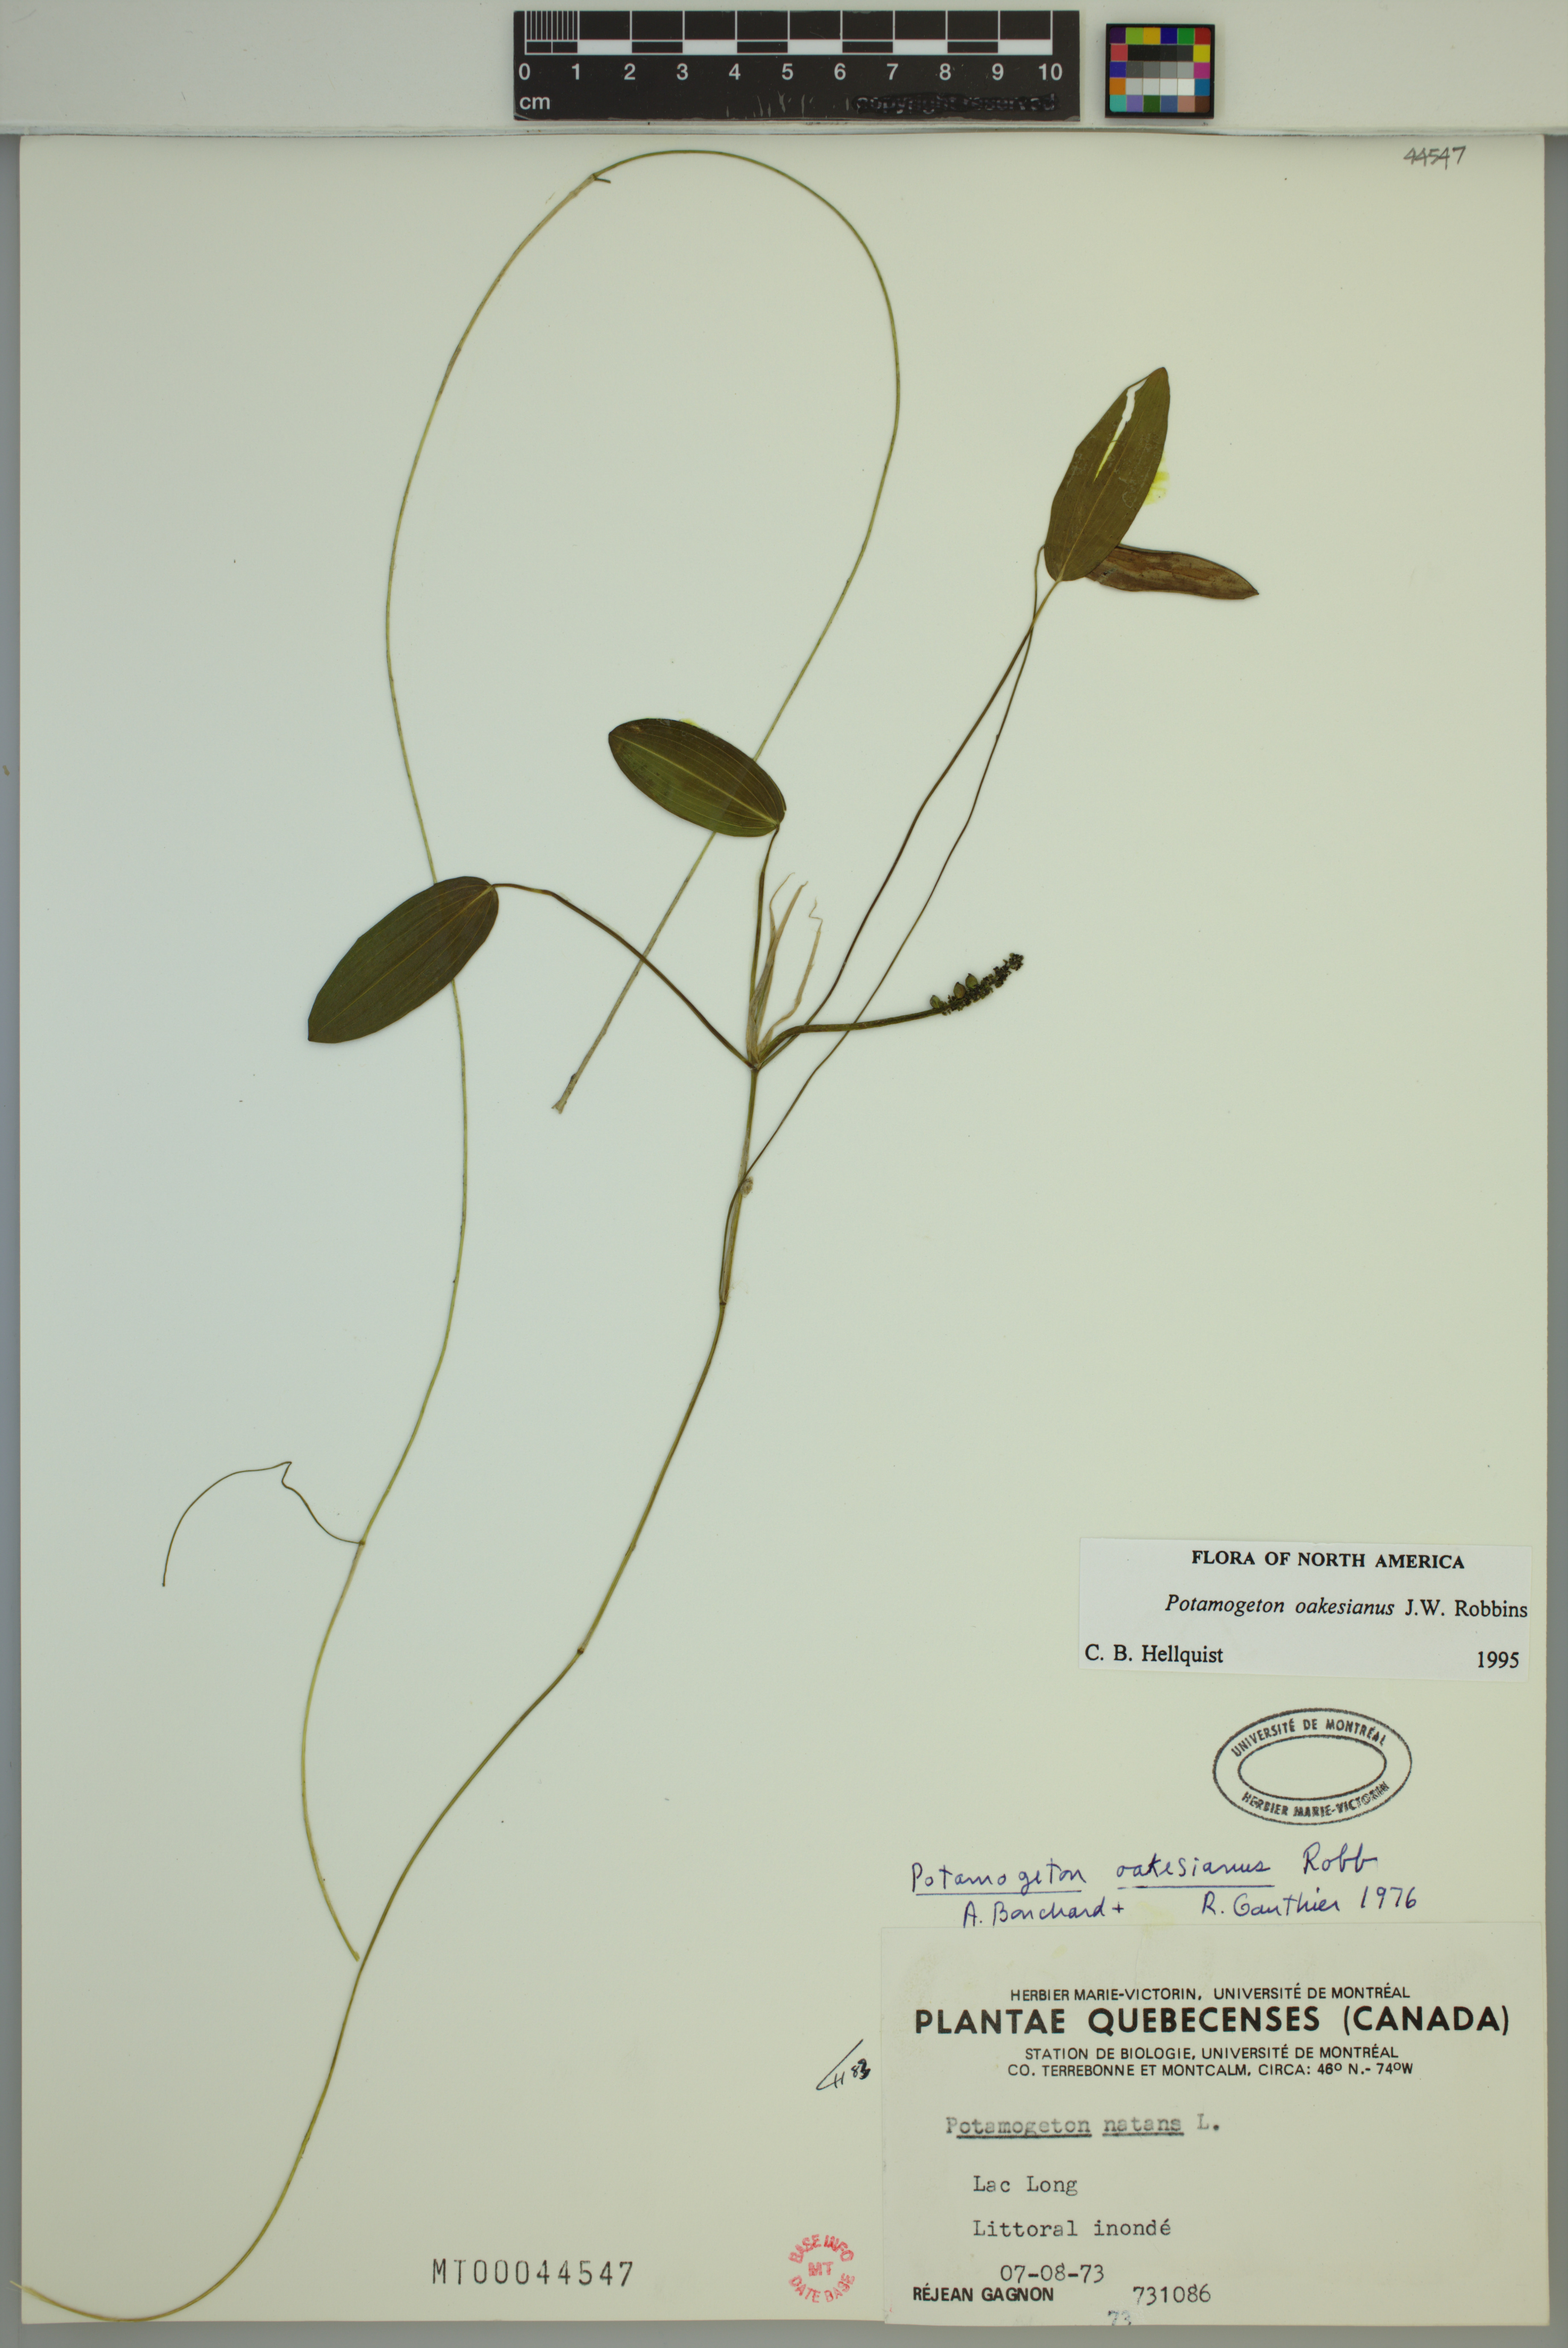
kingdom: Plantae
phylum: Tracheophyta
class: Liliopsida
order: Alismatales
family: Potamogetonaceae
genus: Potamogeton
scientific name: Potamogeton oakesianus
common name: Oakes' pondweed
